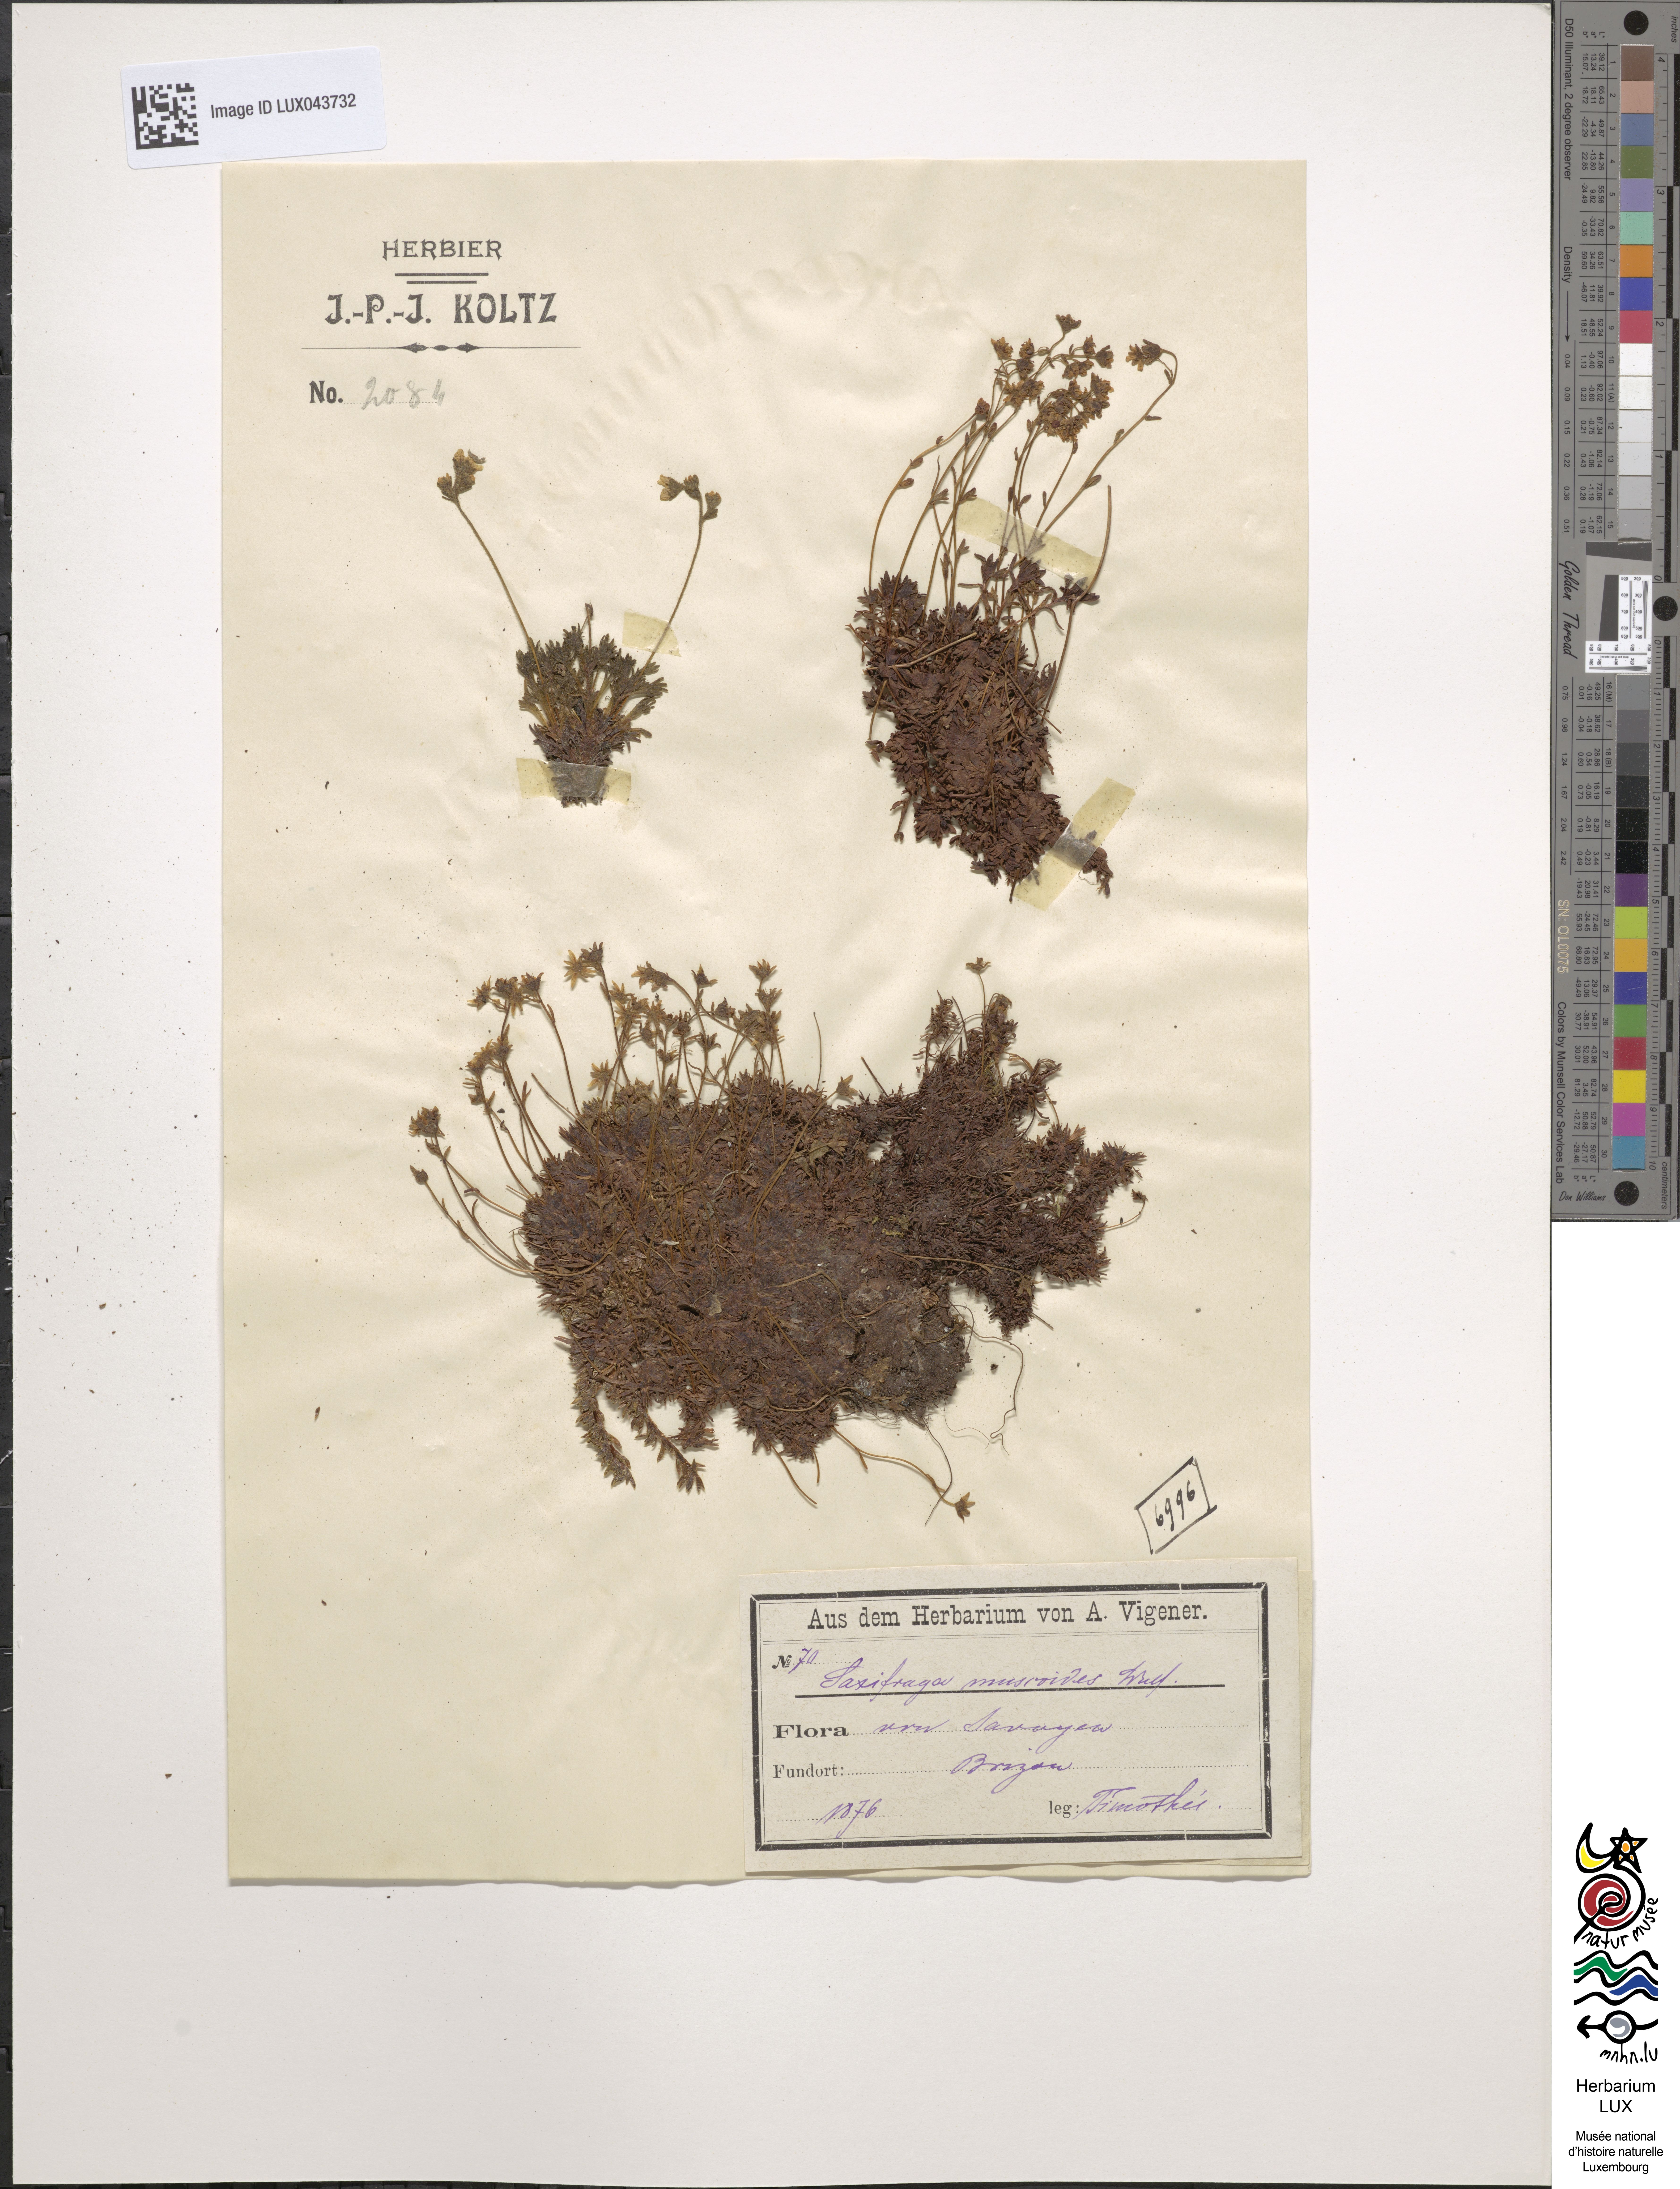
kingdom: Plantae
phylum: Tracheophyta
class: Magnoliopsida
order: Saxifragales
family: Saxifragaceae
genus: Saxifraga
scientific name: Saxifraga moschata
